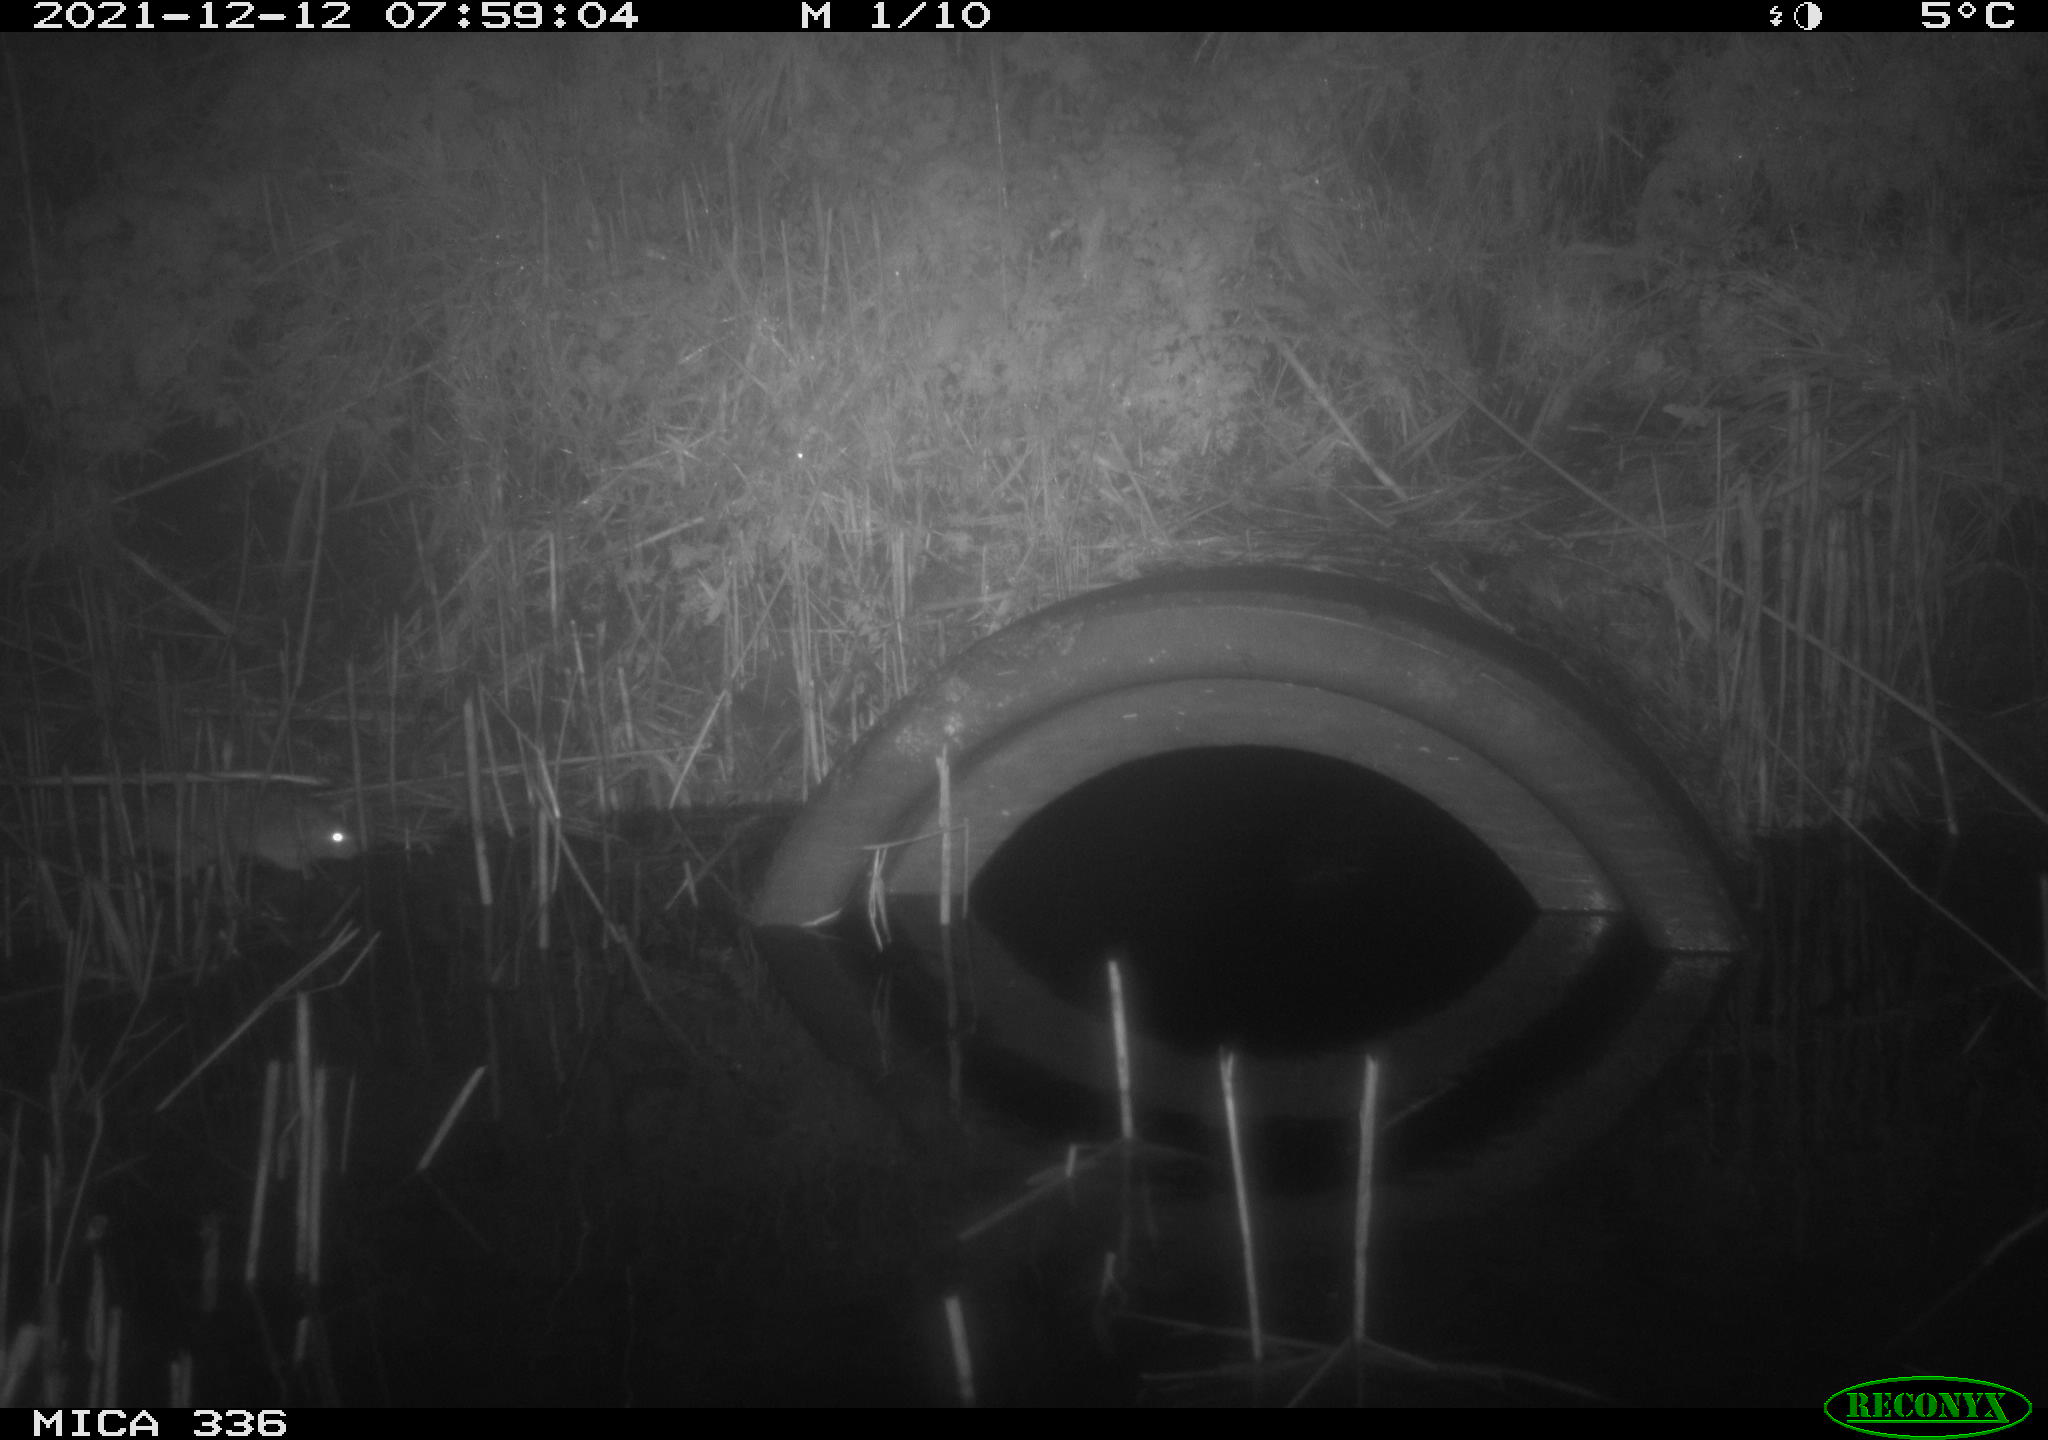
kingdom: Animalia
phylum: Chordata
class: Mammalia
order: Rodentia
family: Muridae
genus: Rattus
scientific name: Rattus norvegicus
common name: Brown rat
